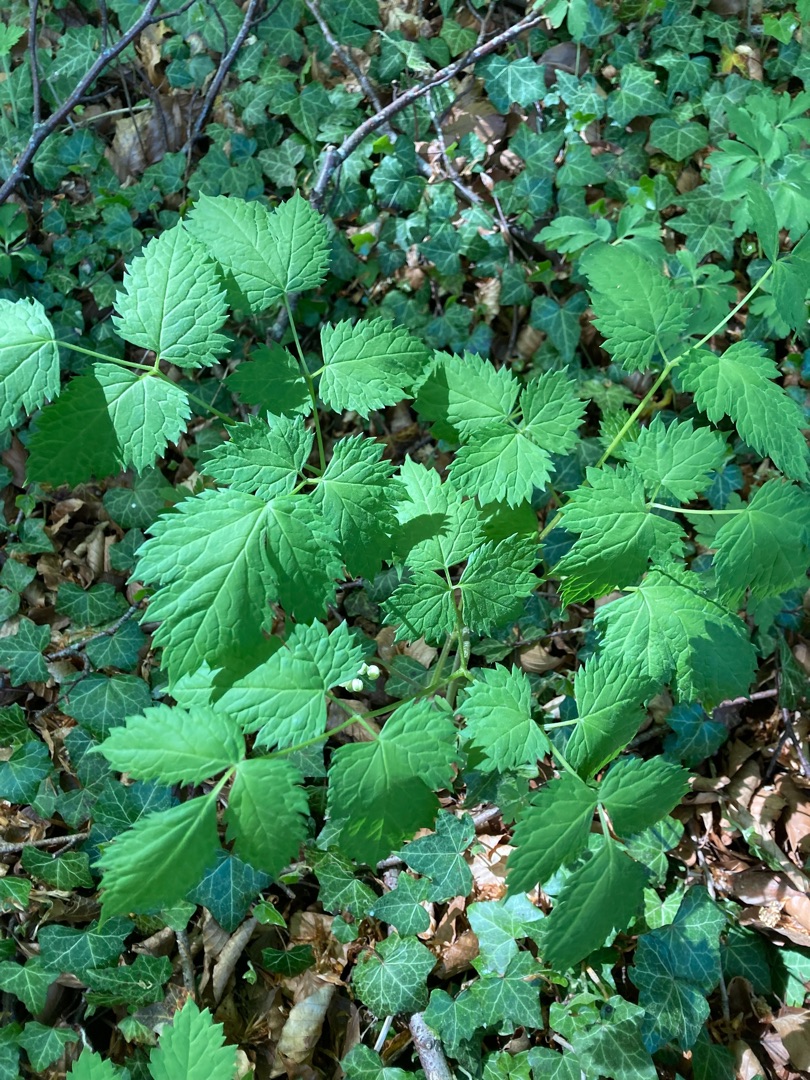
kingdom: Plantae
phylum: Tracheophyta
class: Magnoliopsida
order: Ranunculales
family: Ranunculaceae
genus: Actaea
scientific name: Actaea spicata
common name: Druemunke
